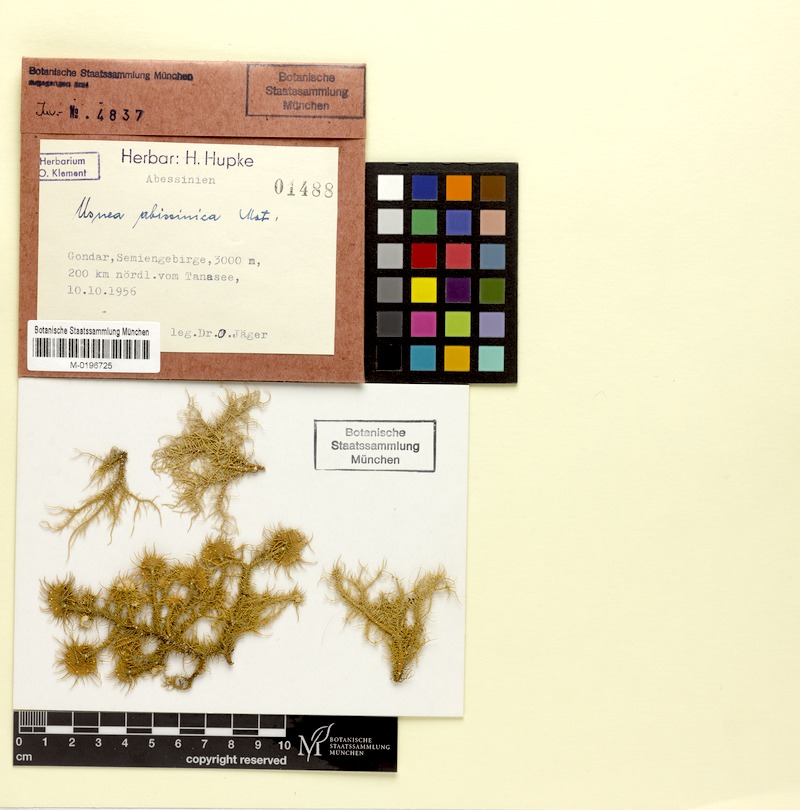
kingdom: Fungi
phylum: Ascomycota
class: Lecanoromycetes
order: Lecanorales
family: Parmeliaceae
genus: Usnea
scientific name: Usnea abissinica
